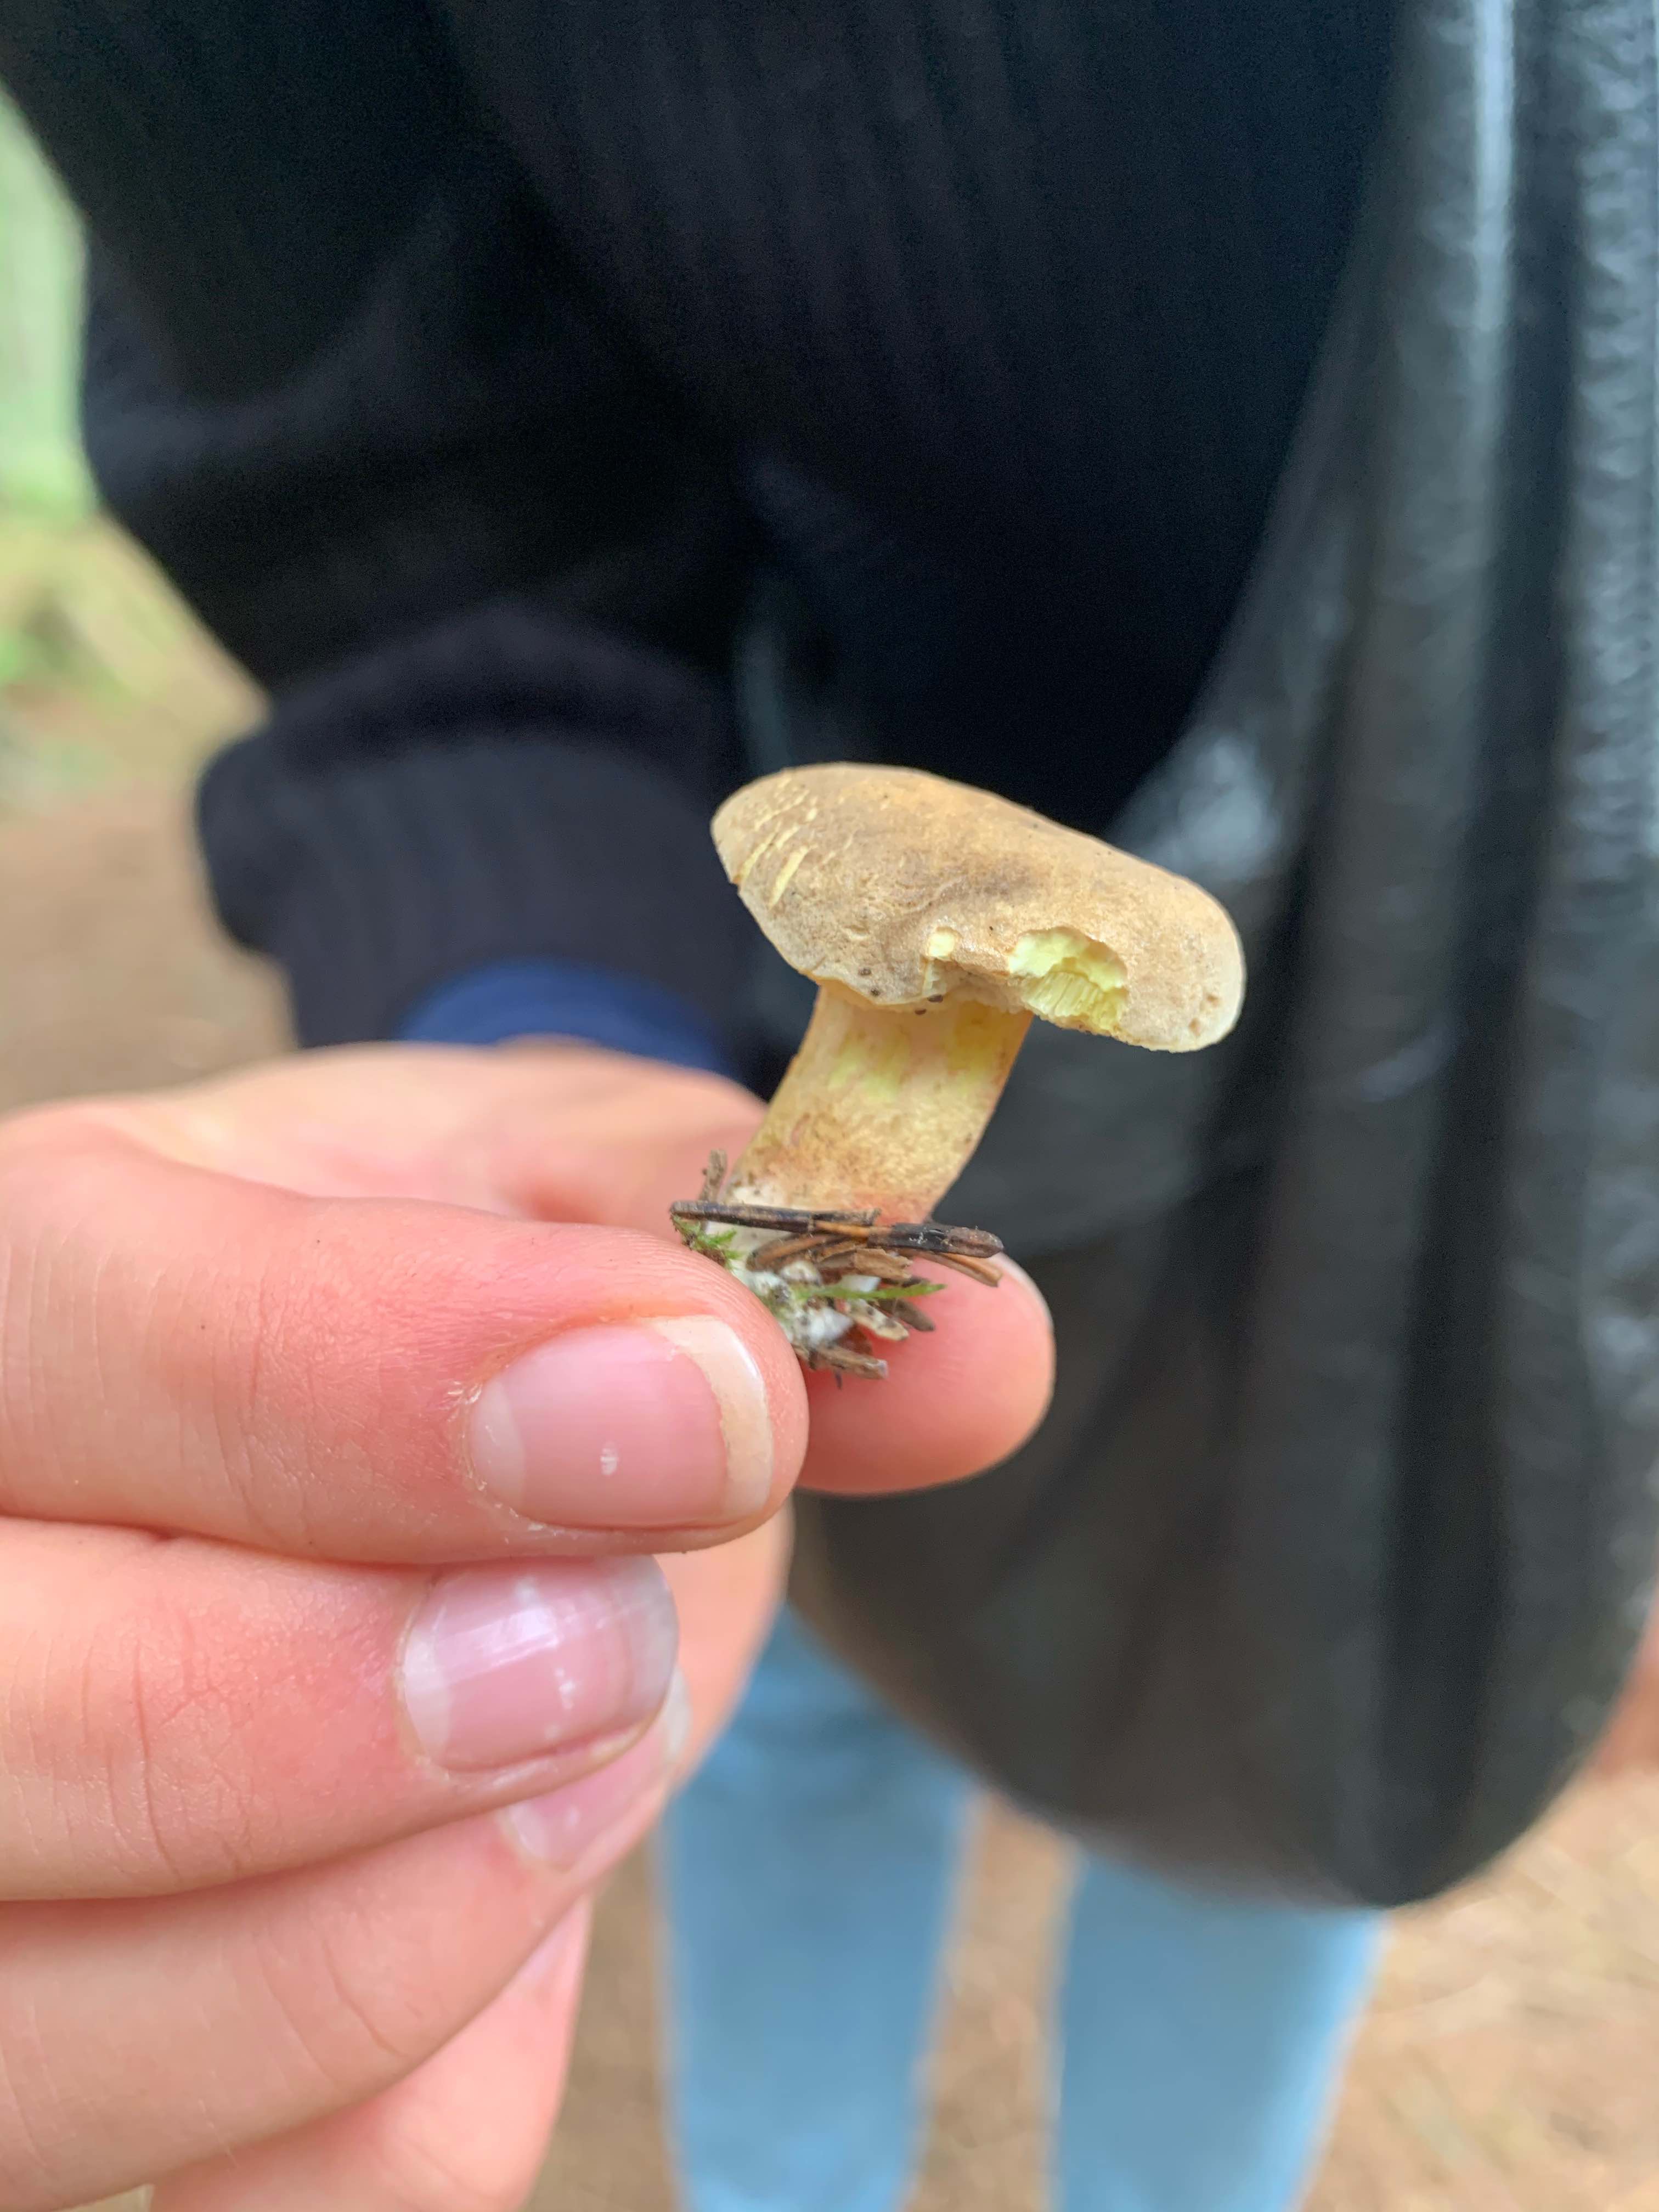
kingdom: Fungi
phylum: Basidiomycota
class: Agaricomycetes
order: Boletales
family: Boletaceae
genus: Xerocomellus
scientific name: Xerocomellus
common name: dværgrørhat
